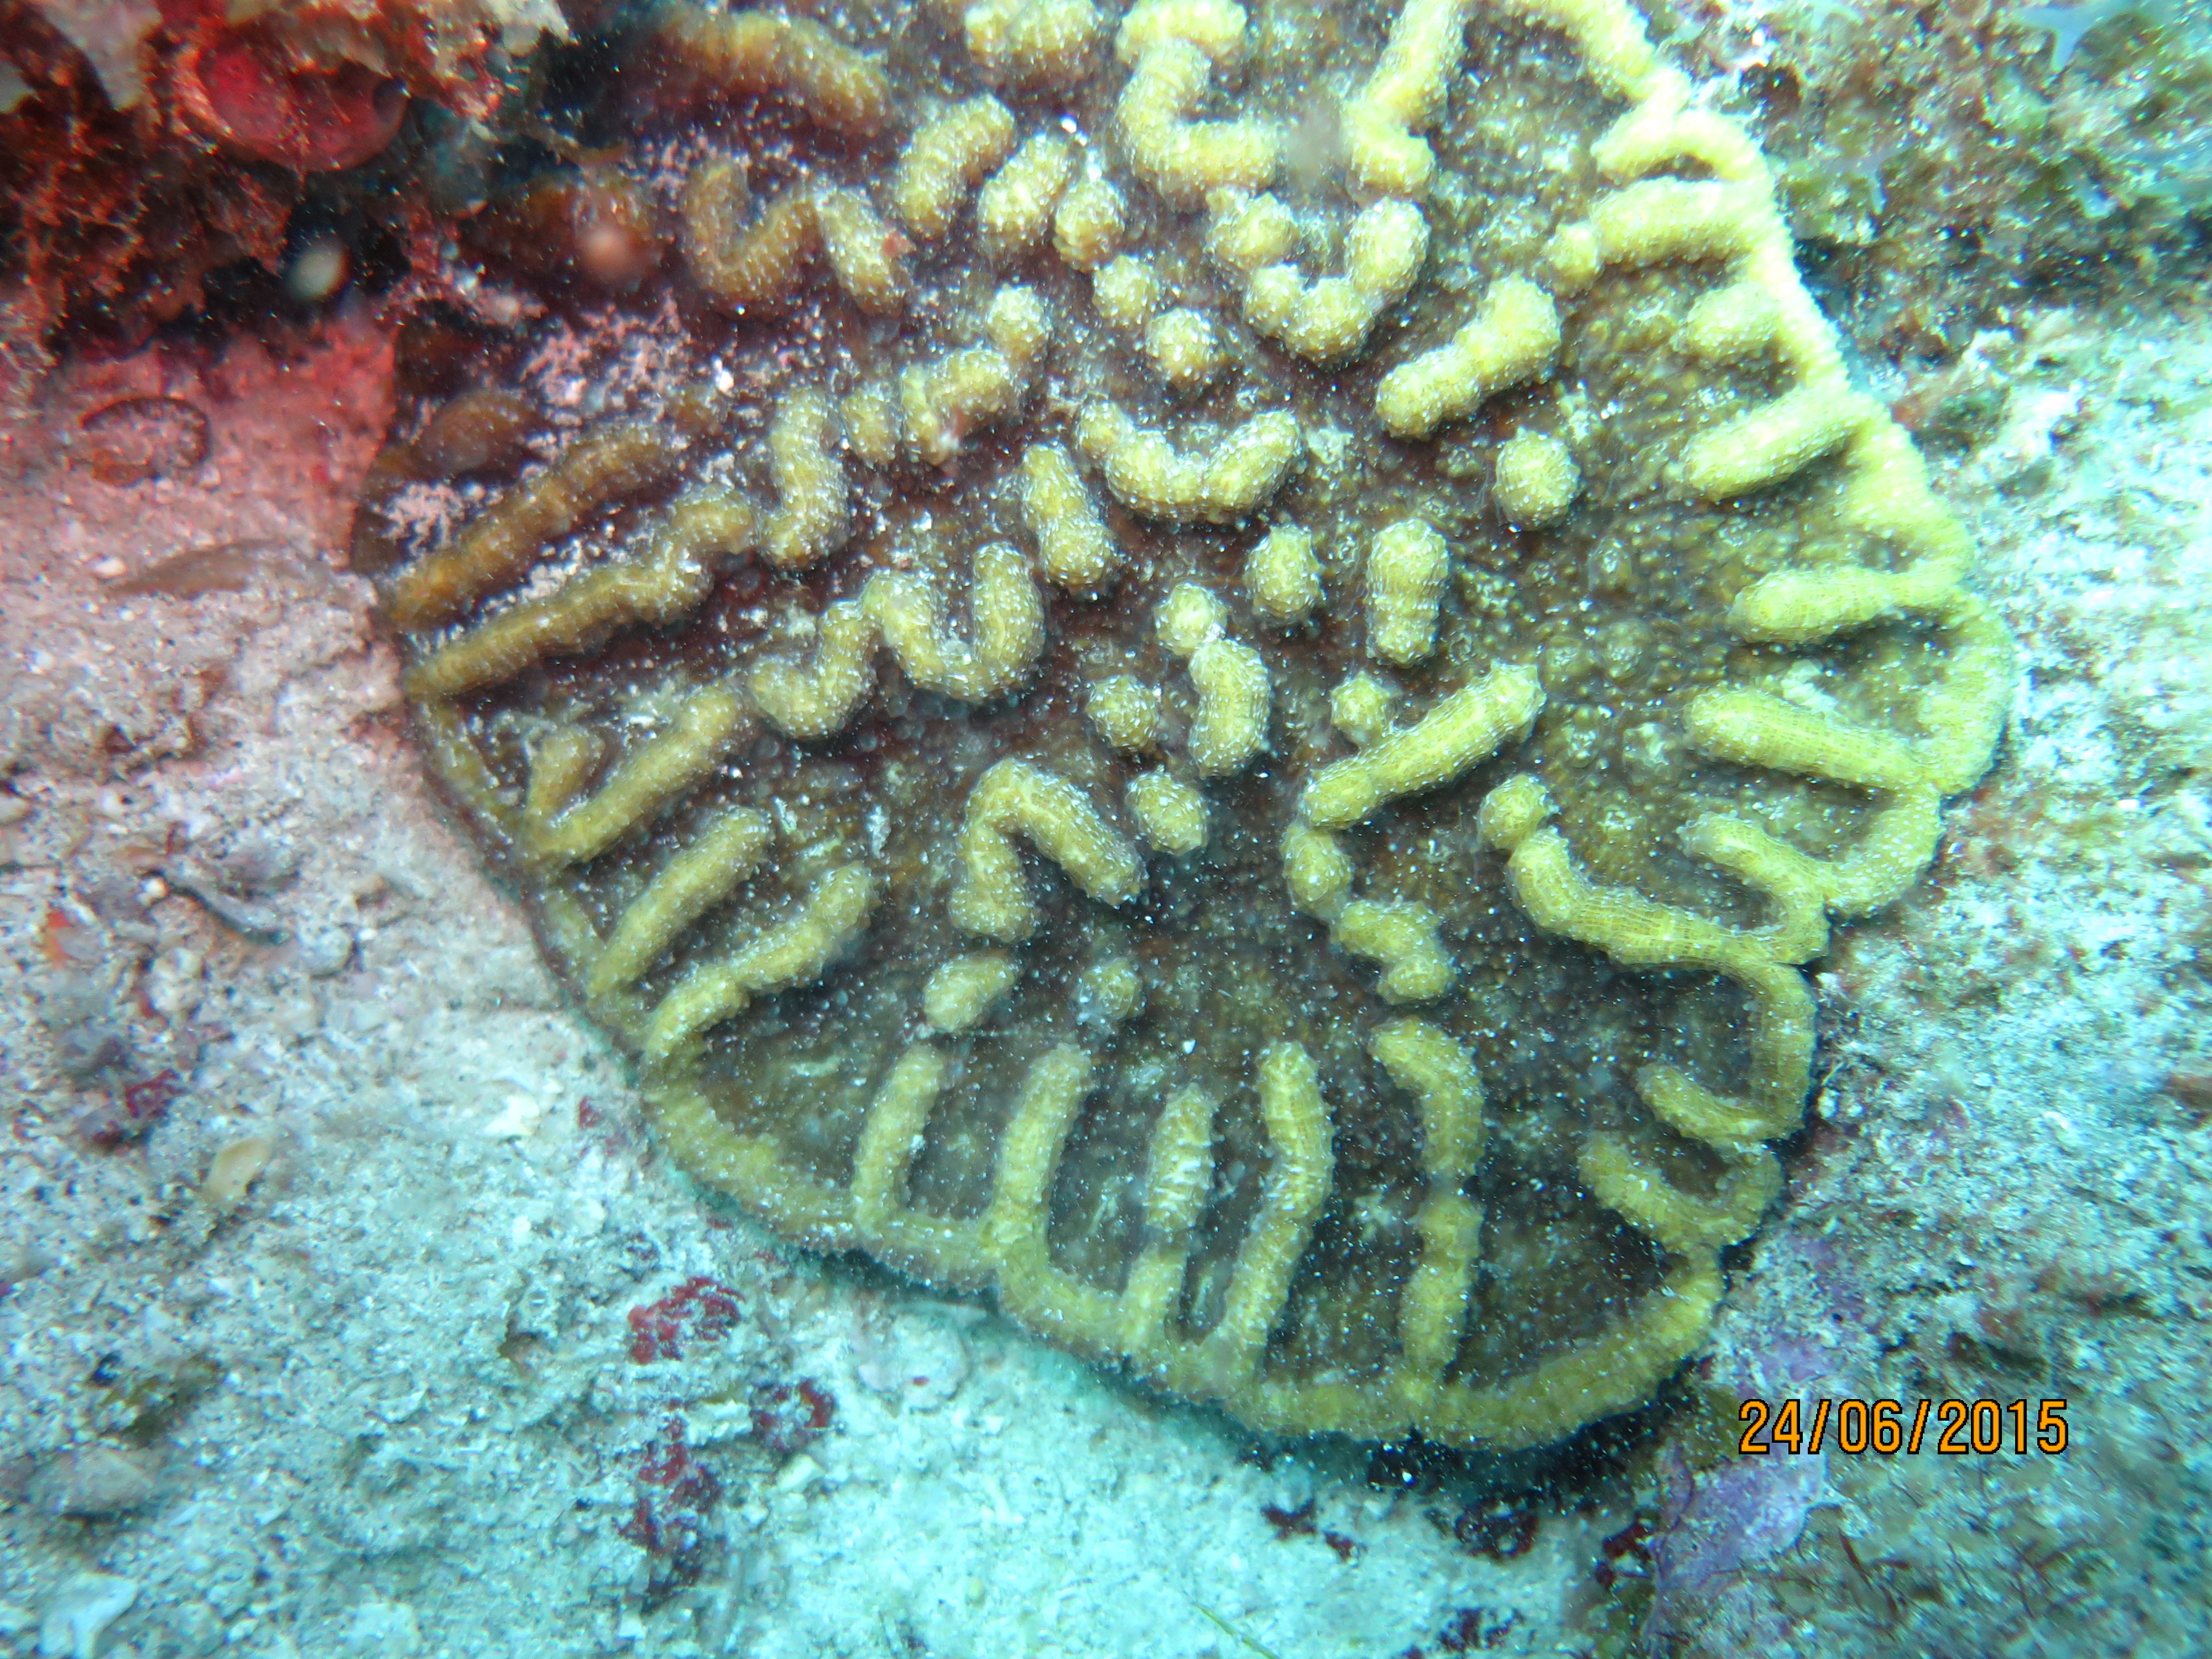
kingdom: Animalia
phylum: Cnidaria
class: Anthozoa
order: Scleractinia
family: Faviidae
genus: Mycetophyllia
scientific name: Mycetophyllia aliciae
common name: Knobby cactus coral
